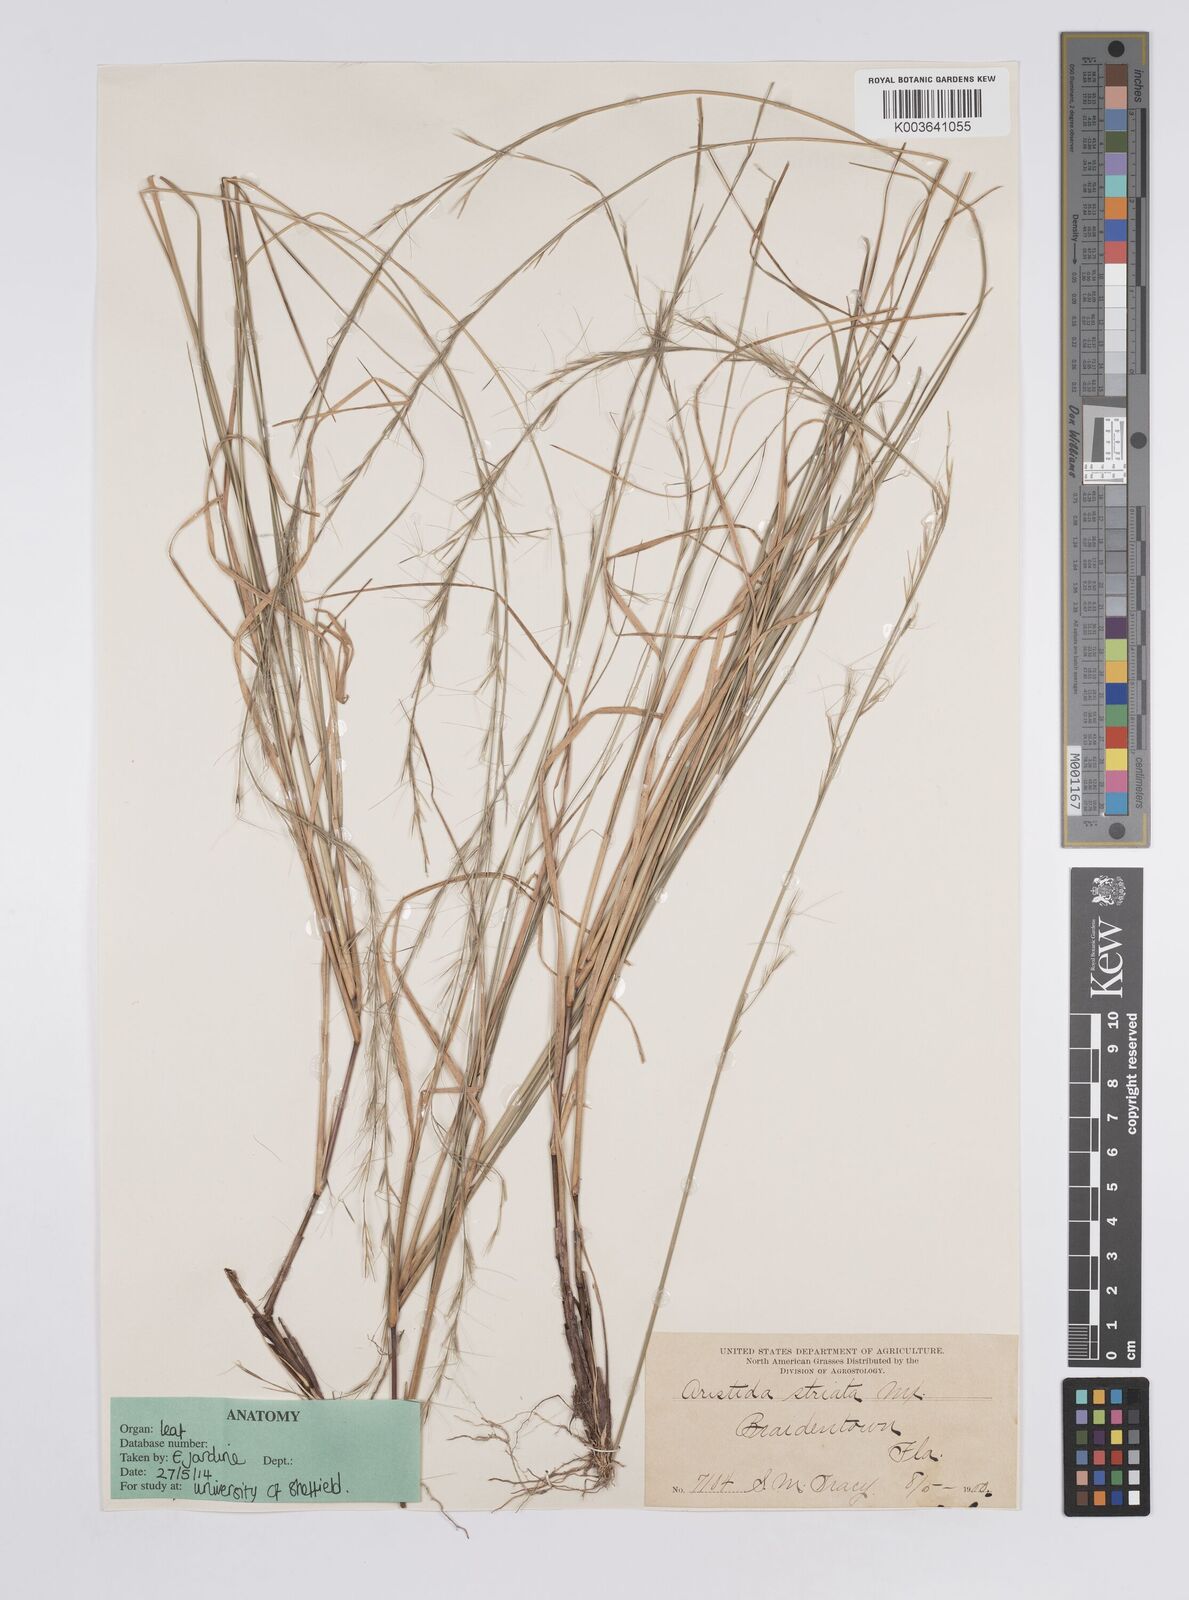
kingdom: Plantae
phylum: Tracheophyta
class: Liliopsida
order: Poales
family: Poaceae
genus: Aristida
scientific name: Aristida stricta
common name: Pineland three-awn
